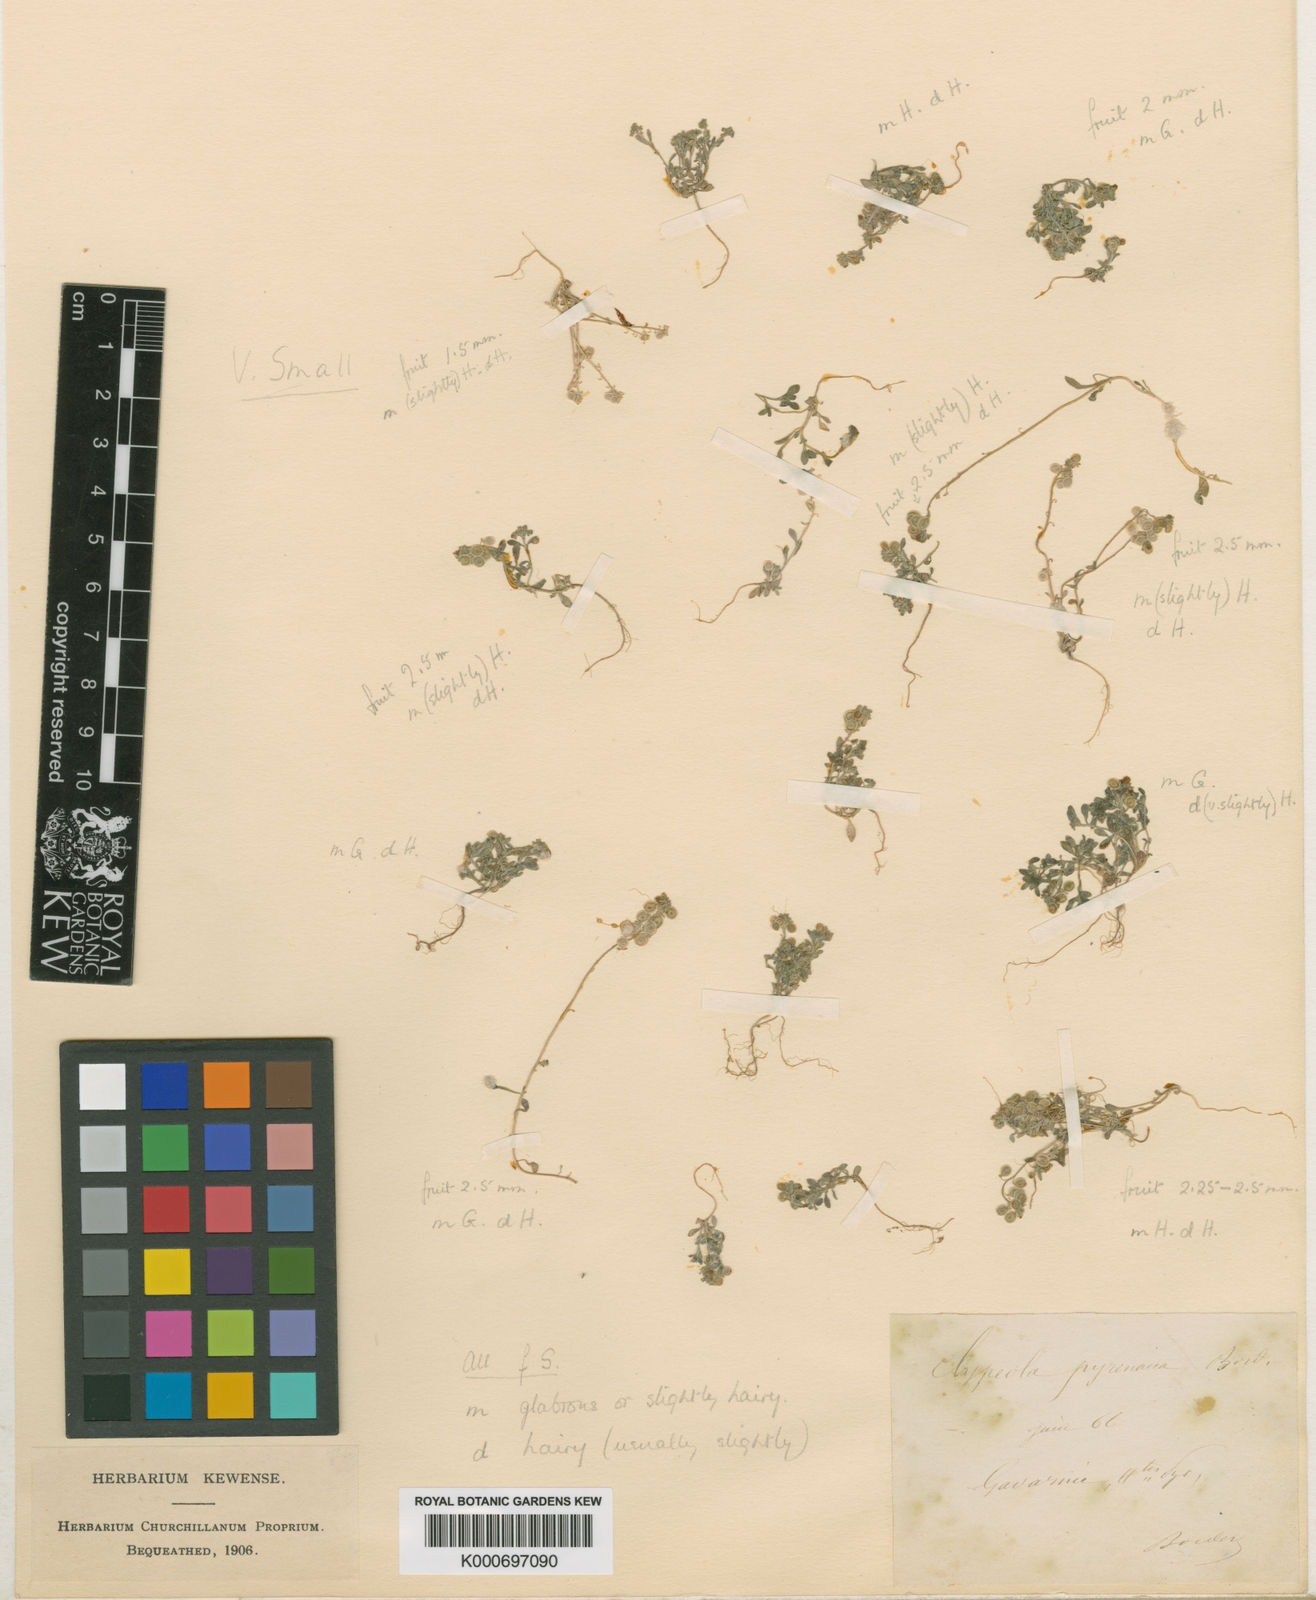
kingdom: Plantae
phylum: Tracheophyta
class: Magnoliopsida
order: Brassicales
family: Brassicaceae
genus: Clypeola
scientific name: Clypeola jonthlaspi
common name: Disk cress
